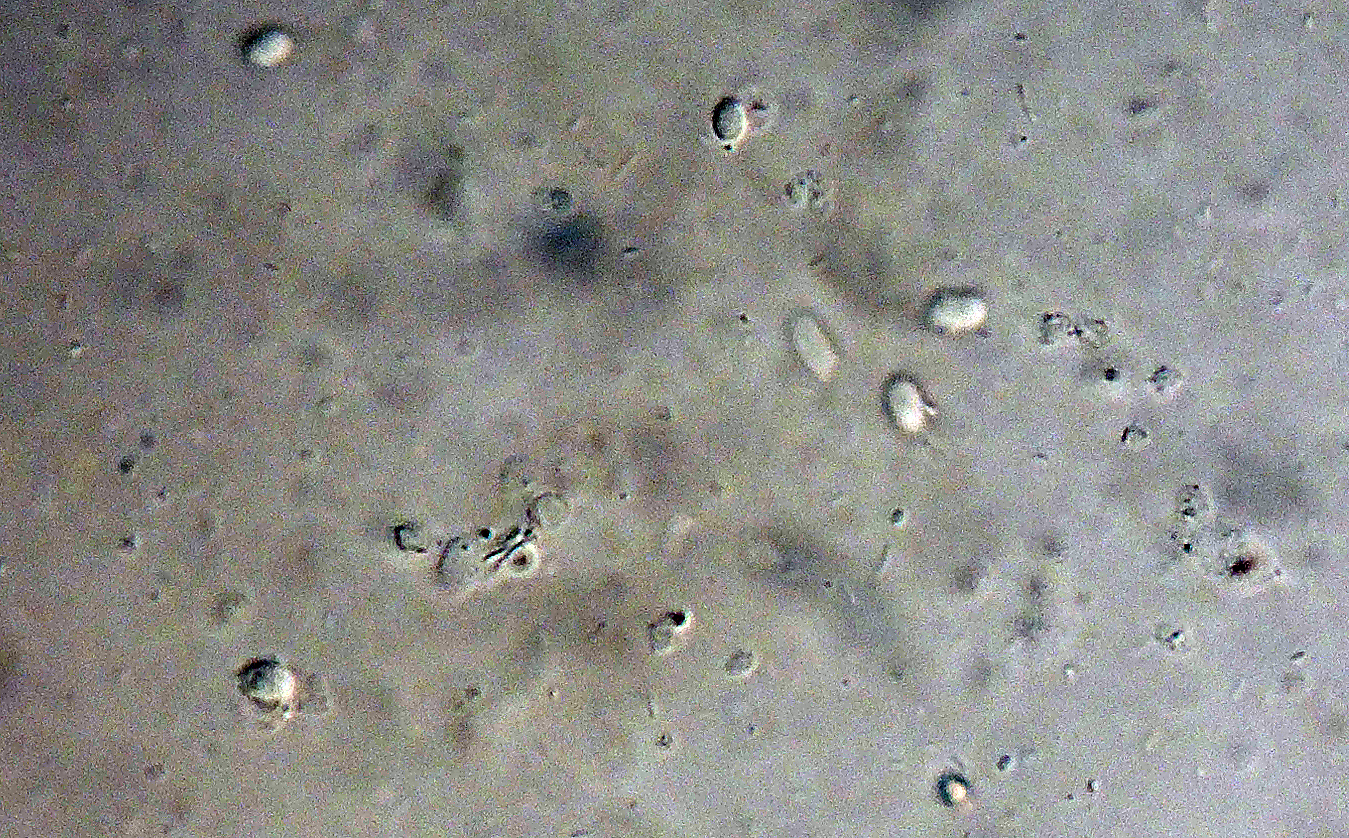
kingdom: Fungi
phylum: Basidiomycota
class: Agaricomycetes
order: Agaricales
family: Clavariaceae
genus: Mucronella
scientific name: Mucronella
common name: hængepig
